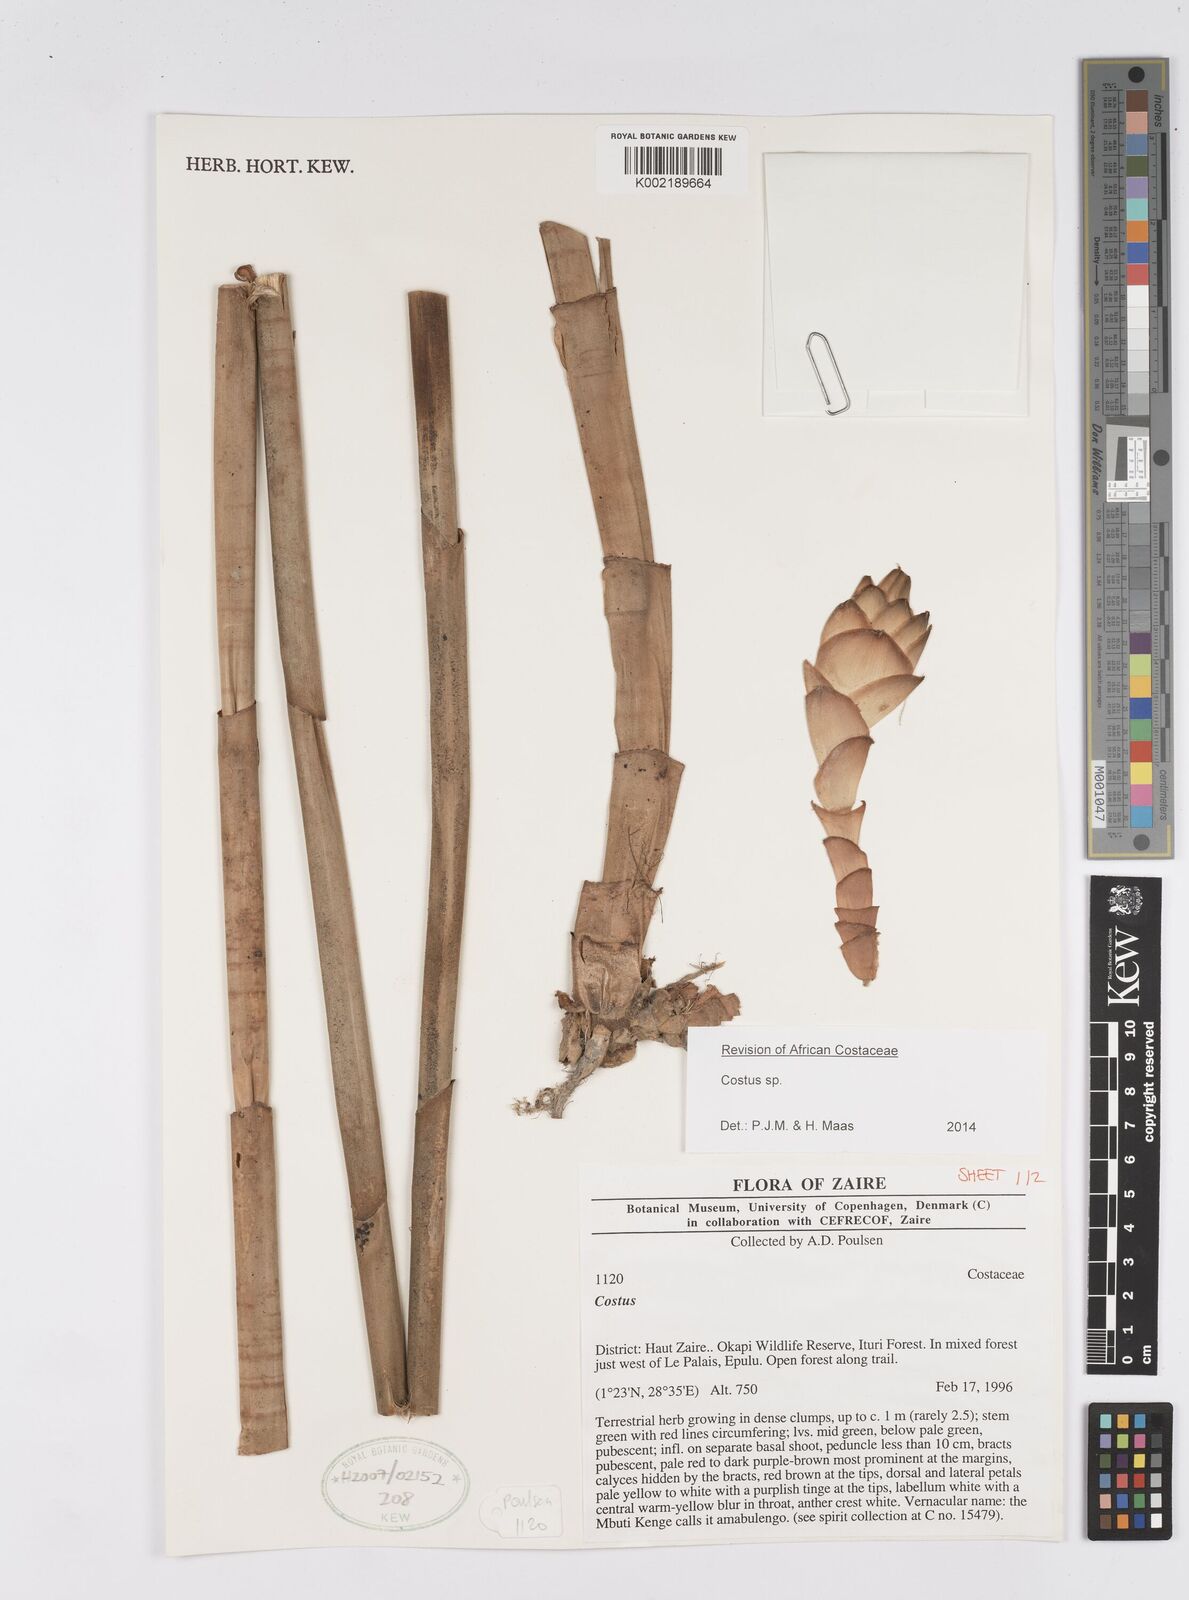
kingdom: Plantae
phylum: Tracheophyta
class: Liliopsida
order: Zingiberales
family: Costaceae
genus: Costus
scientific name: Costus
